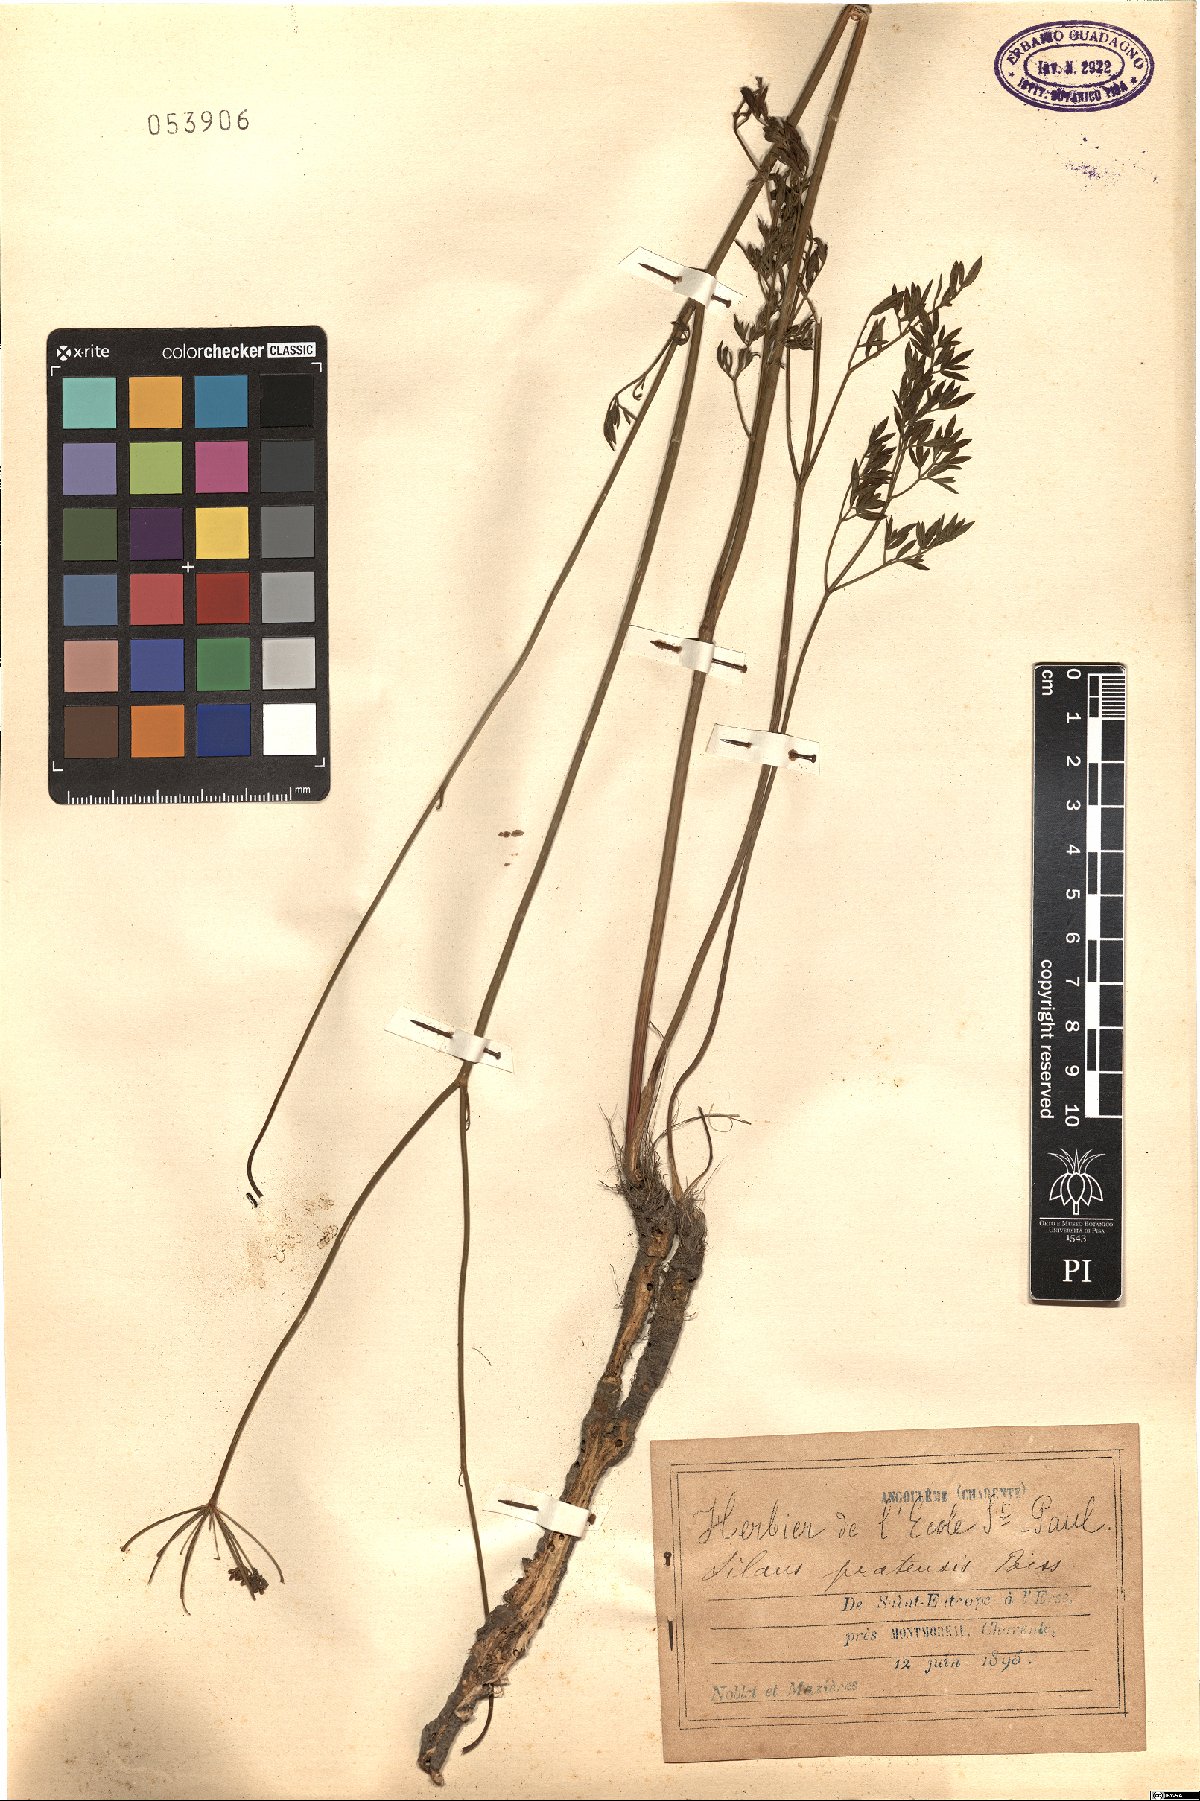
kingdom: Plantae
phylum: Tracheophyta
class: Magnoliopsida
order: Apiales
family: Apiaceae
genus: Silaum
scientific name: Silaum silaus
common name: Pepper-saxifrage
